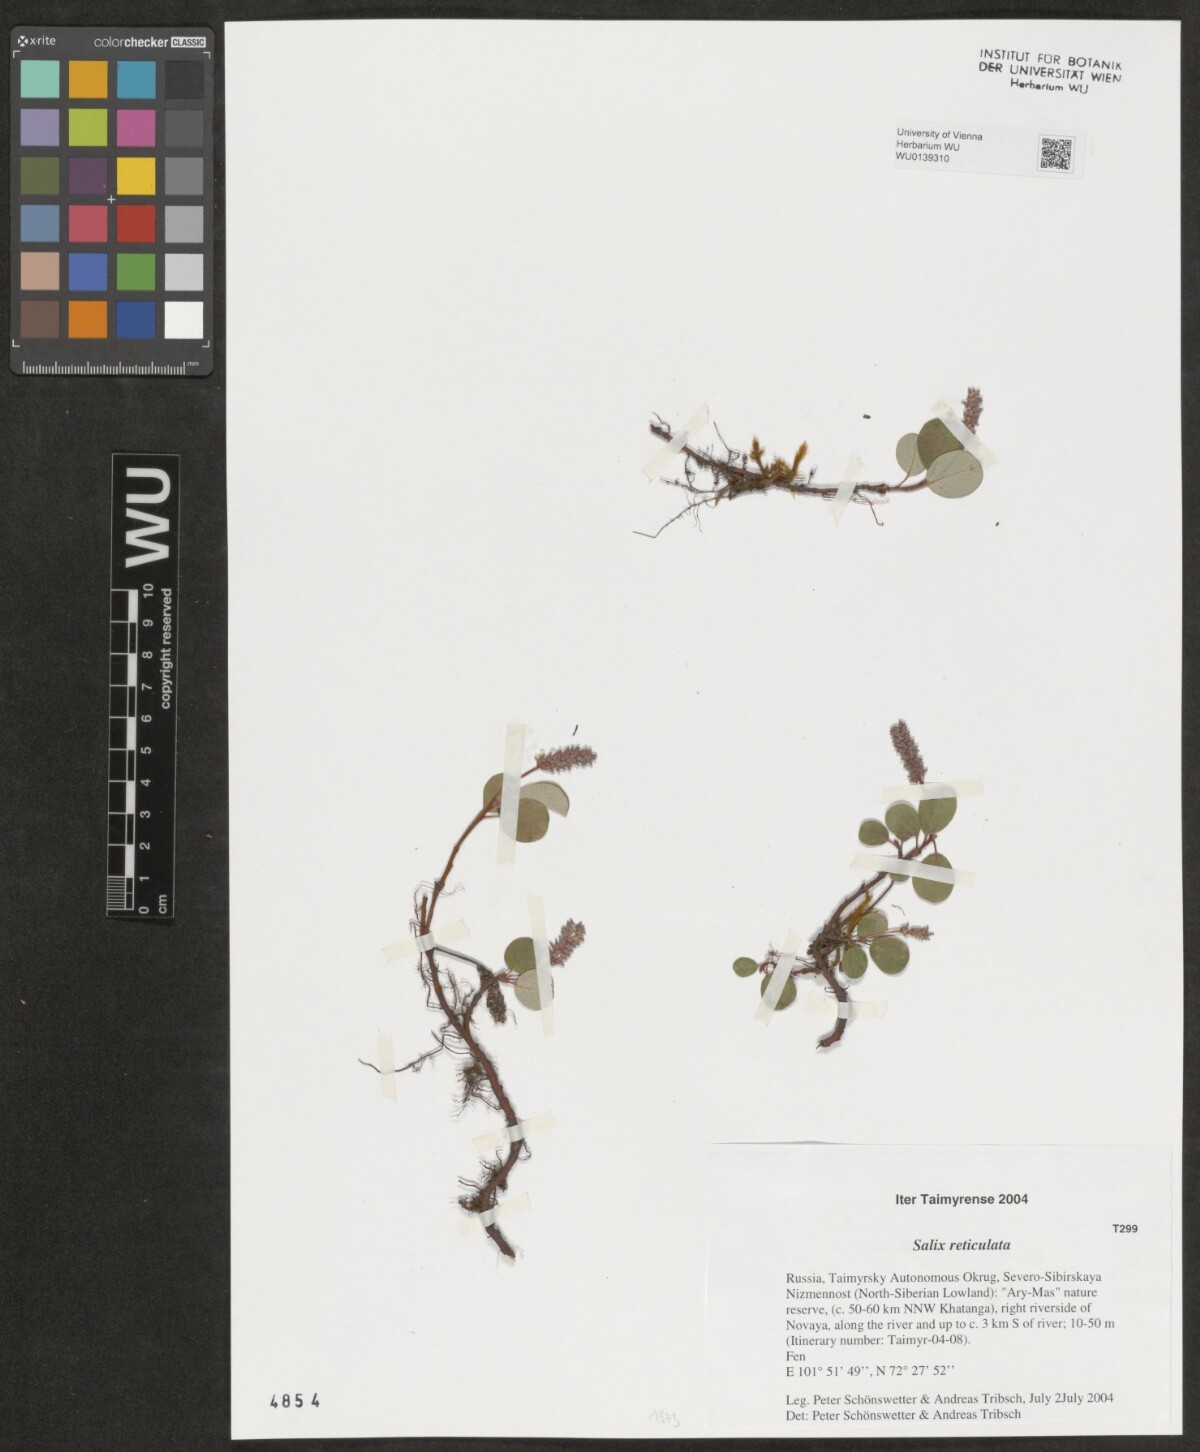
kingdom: Plantae
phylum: Tracheophyta
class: Magnoliopsida
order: Malpighiales
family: Salicaceae
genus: Salix
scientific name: Salix reticulata
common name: Net-leaved willow
